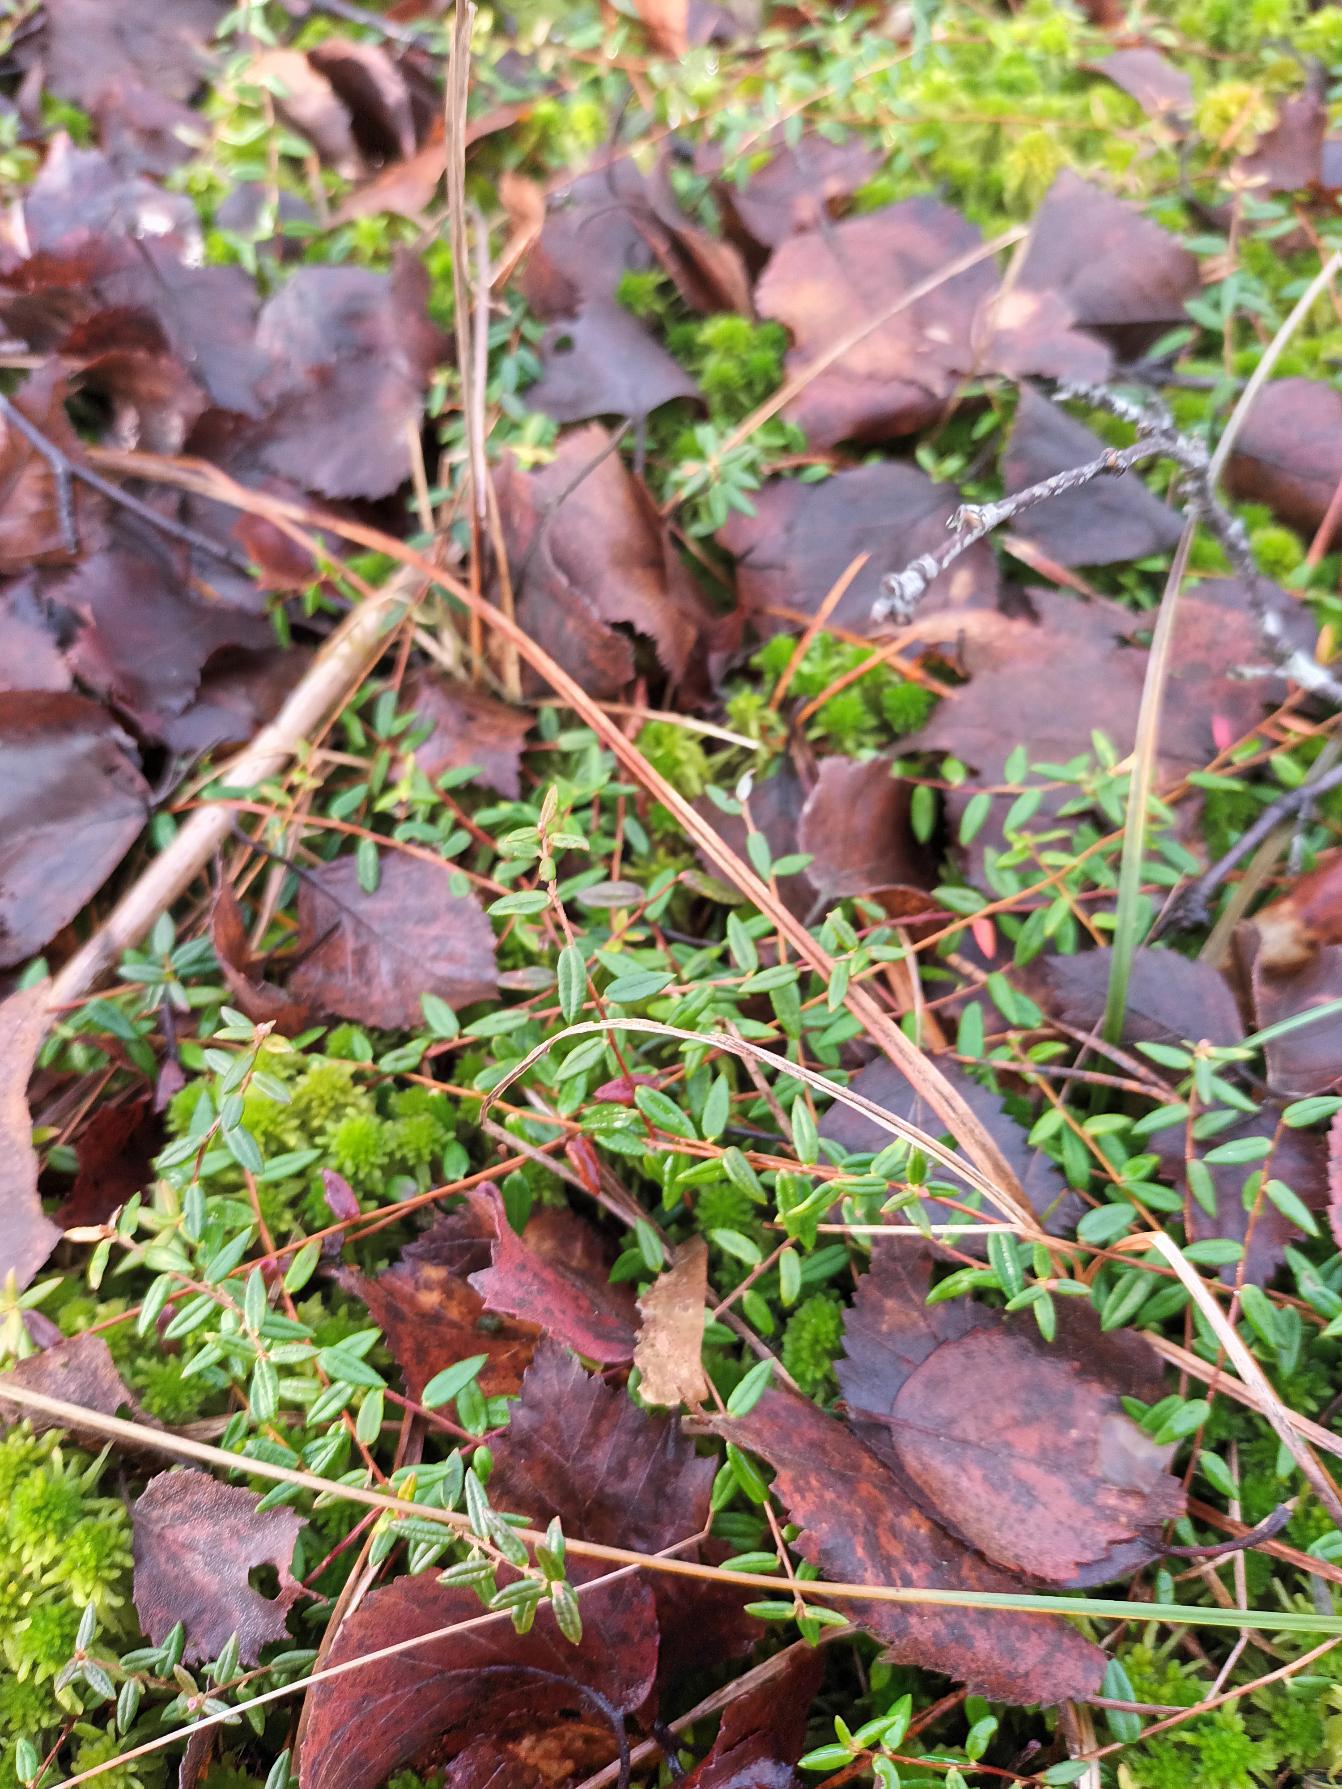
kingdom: Plantae
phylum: Tracheophyta
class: Magnoliopsida
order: Ericales
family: Ericaceae
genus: Vaccinium
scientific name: Vaccinium oxycoccos
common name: Tranebær
